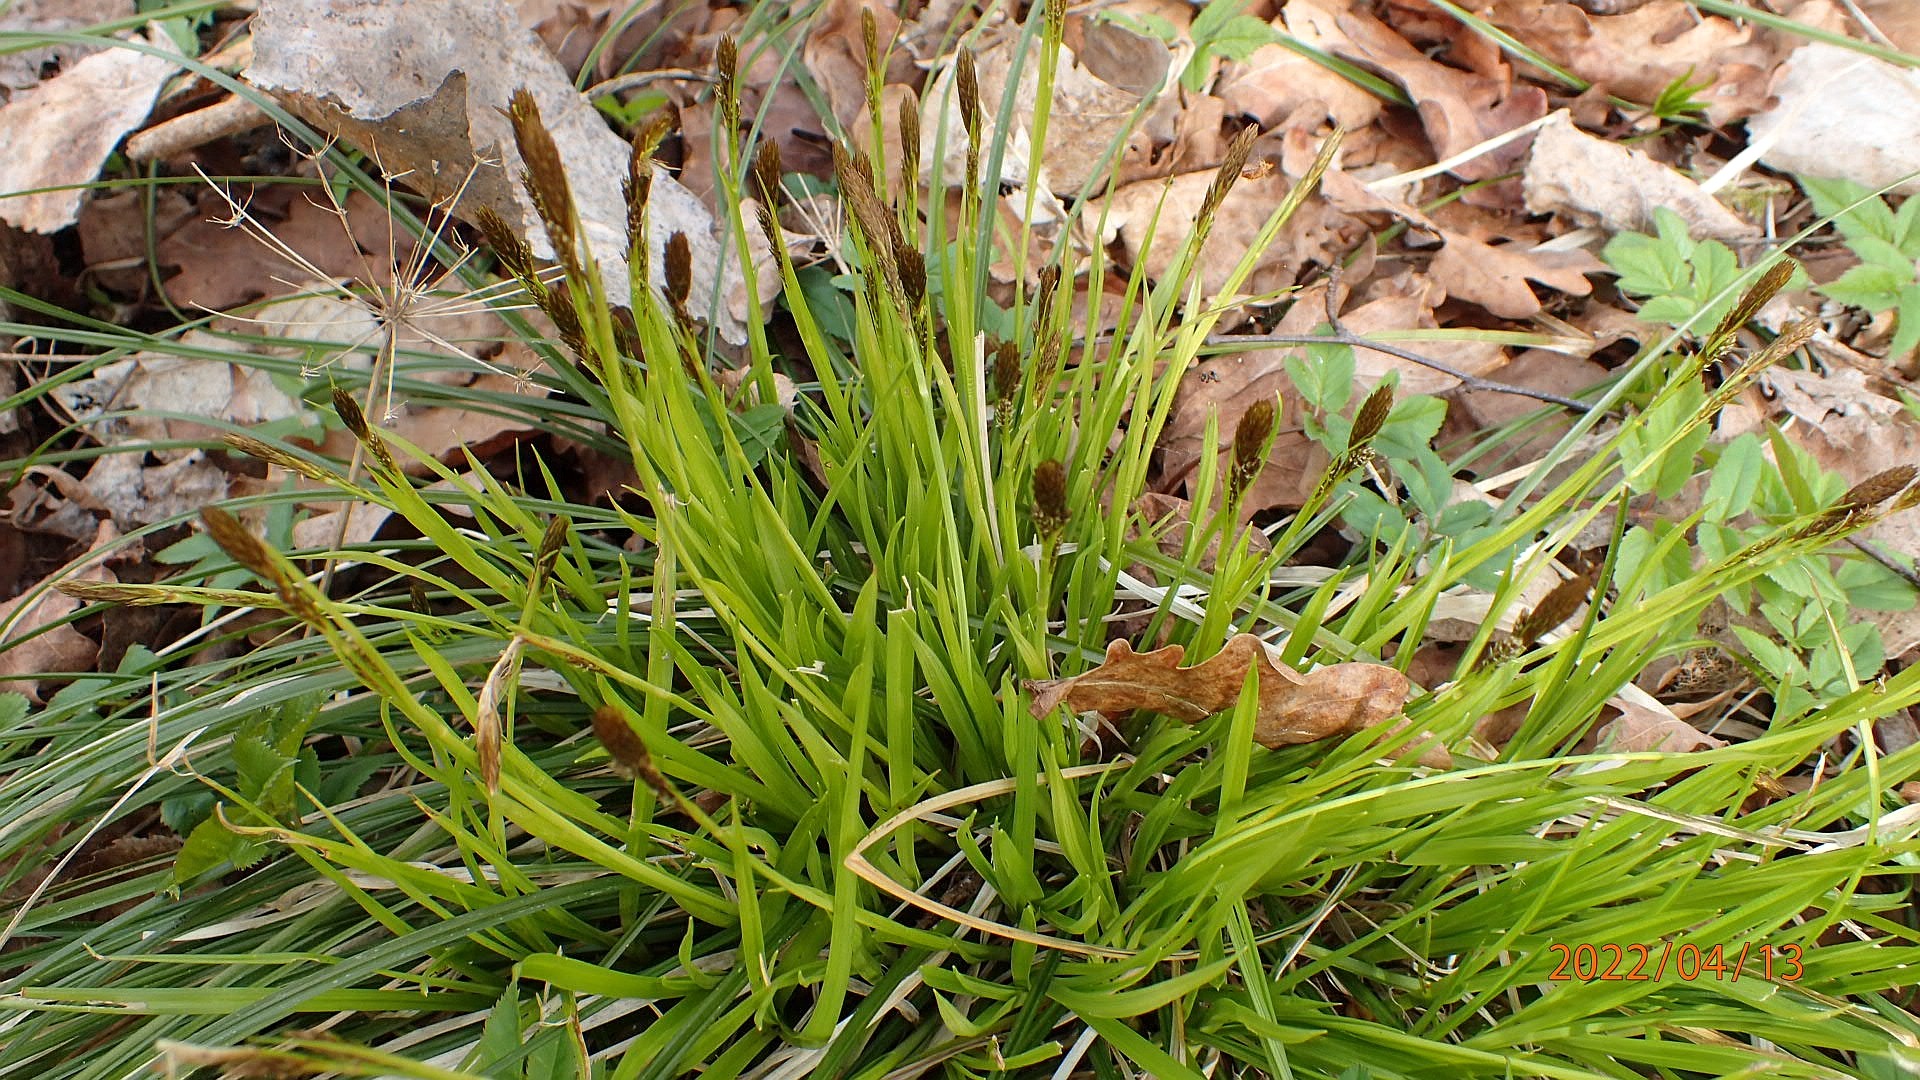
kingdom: Plantae
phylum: Tracheophyta
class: Liliopsida
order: Poales
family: Cyperaceae
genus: Carex
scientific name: Carex caryophyllea
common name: Vår-star
